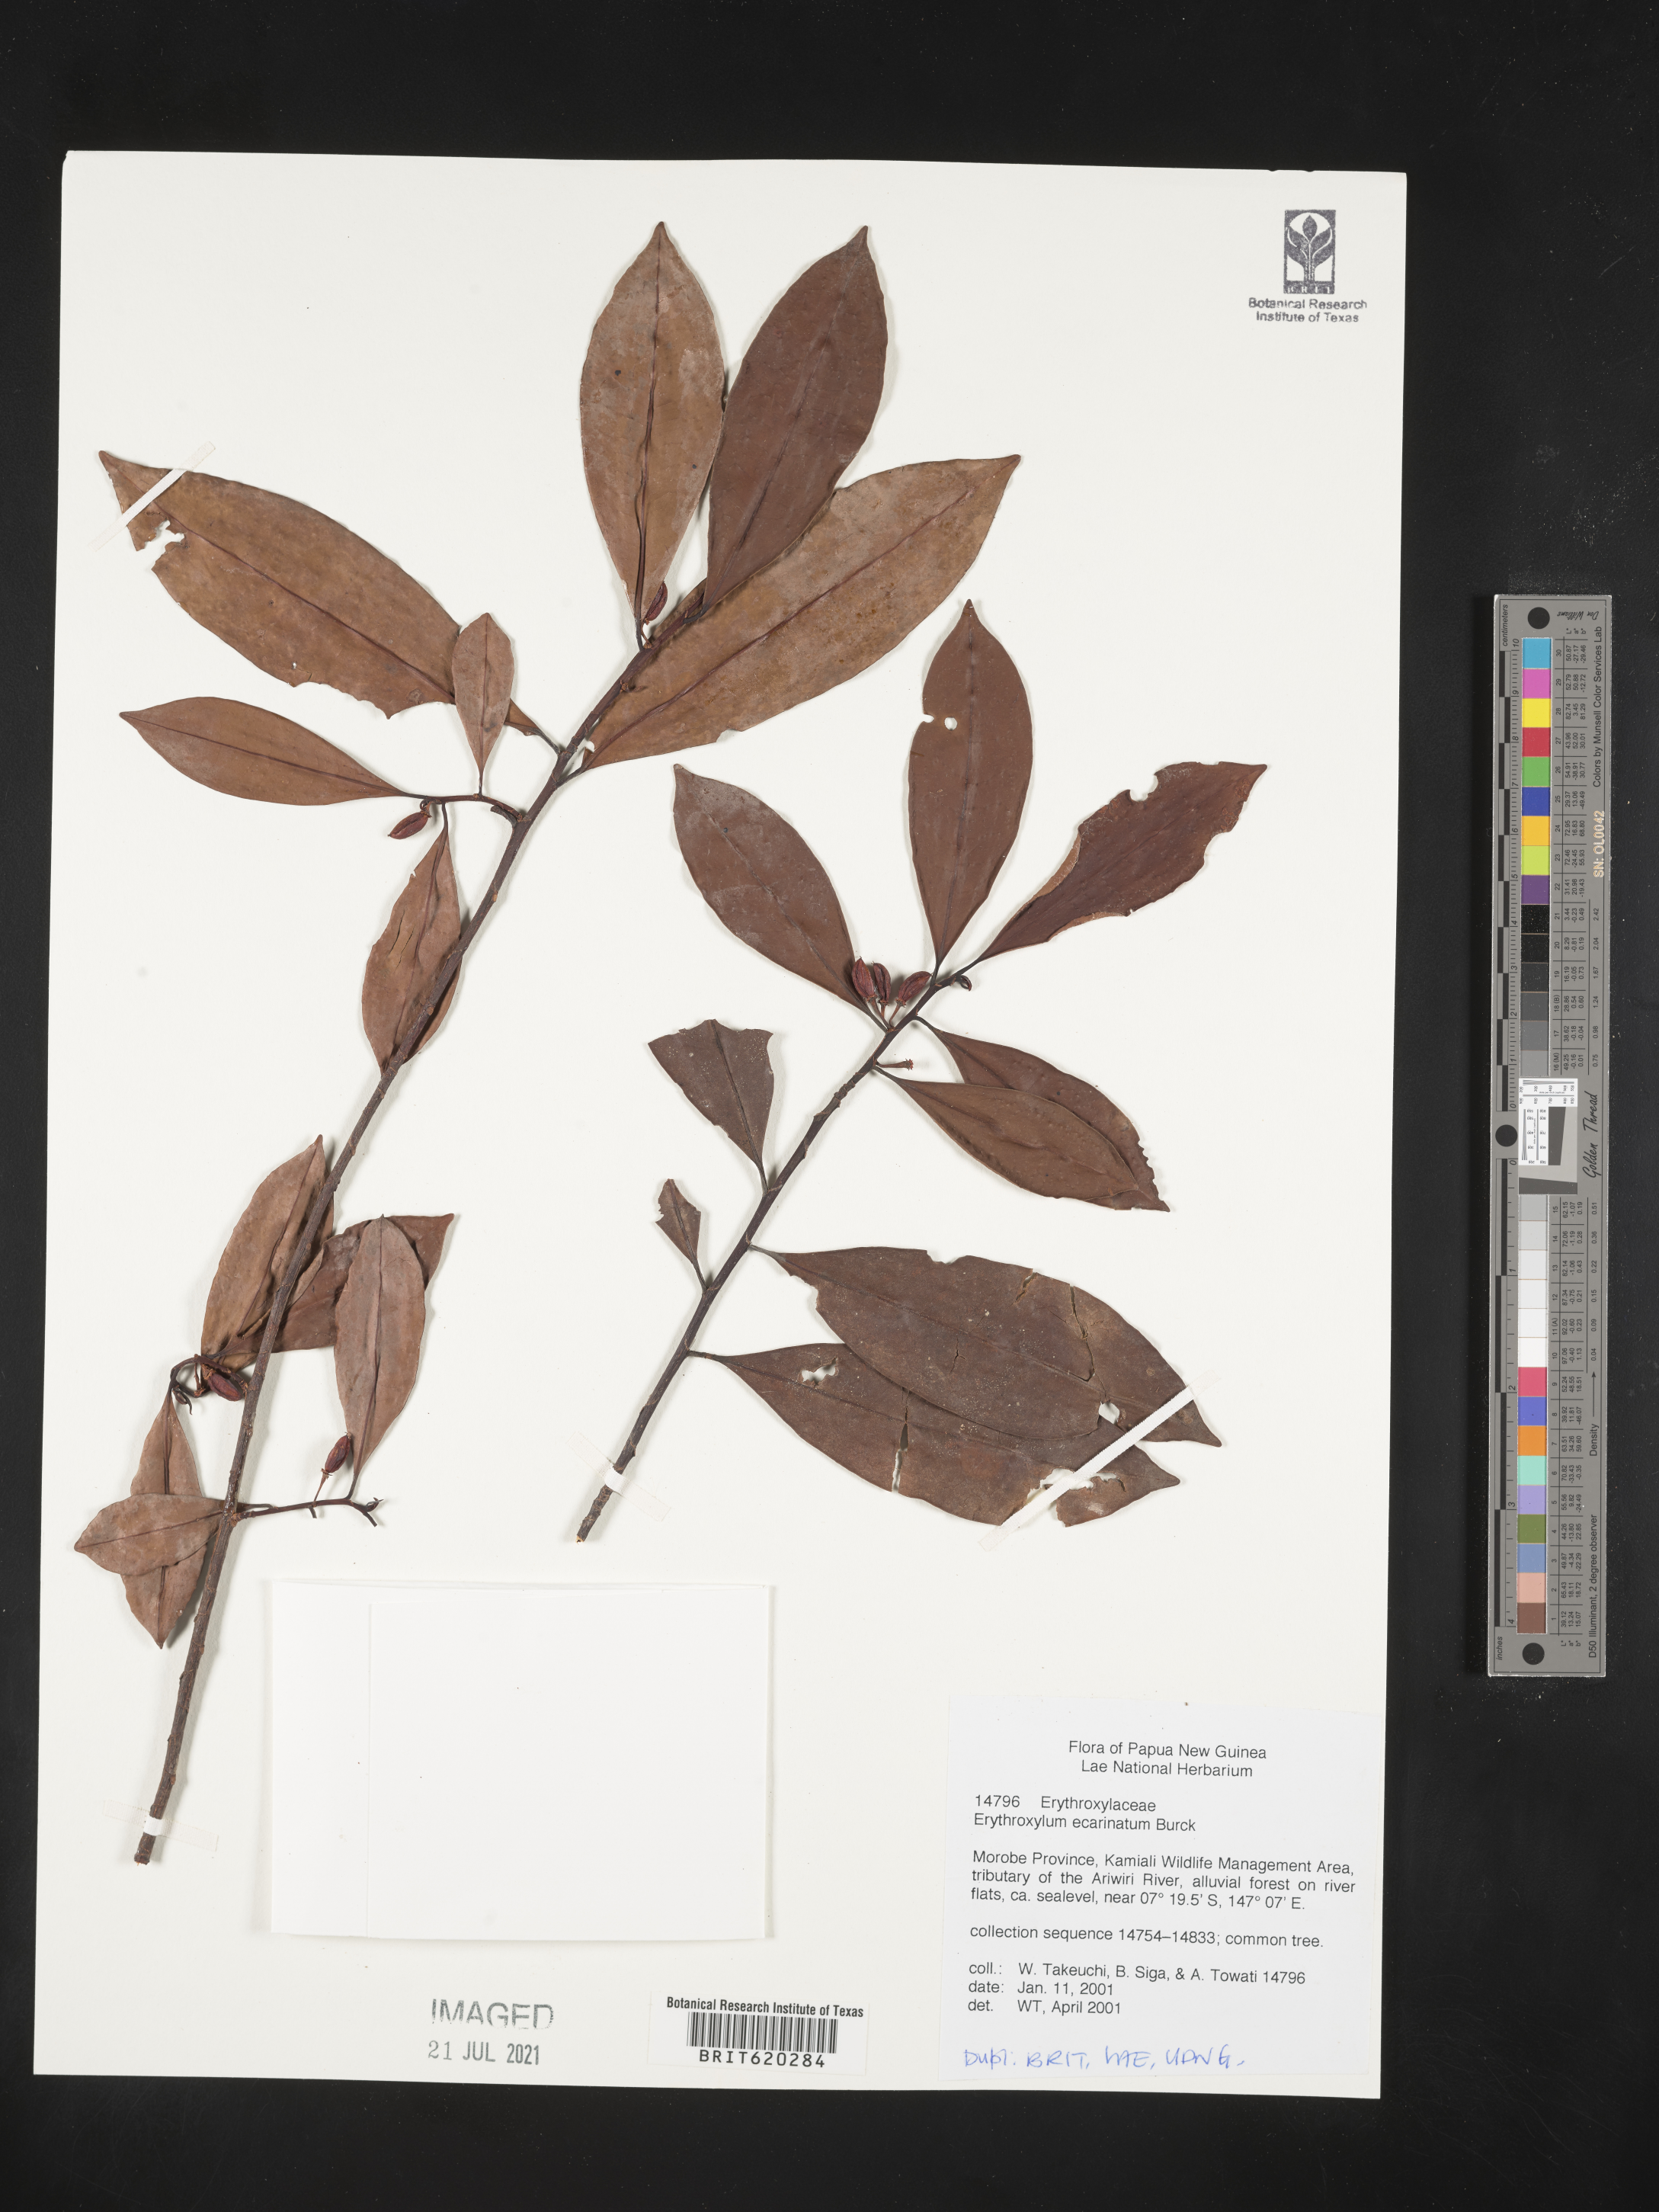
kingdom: Plantae
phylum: Tracheophyta
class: Magnoliopsida
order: Malpighiales
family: Erythroxylaceae
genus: Erythroxylum
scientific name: Erythroxylum ecarinatum
